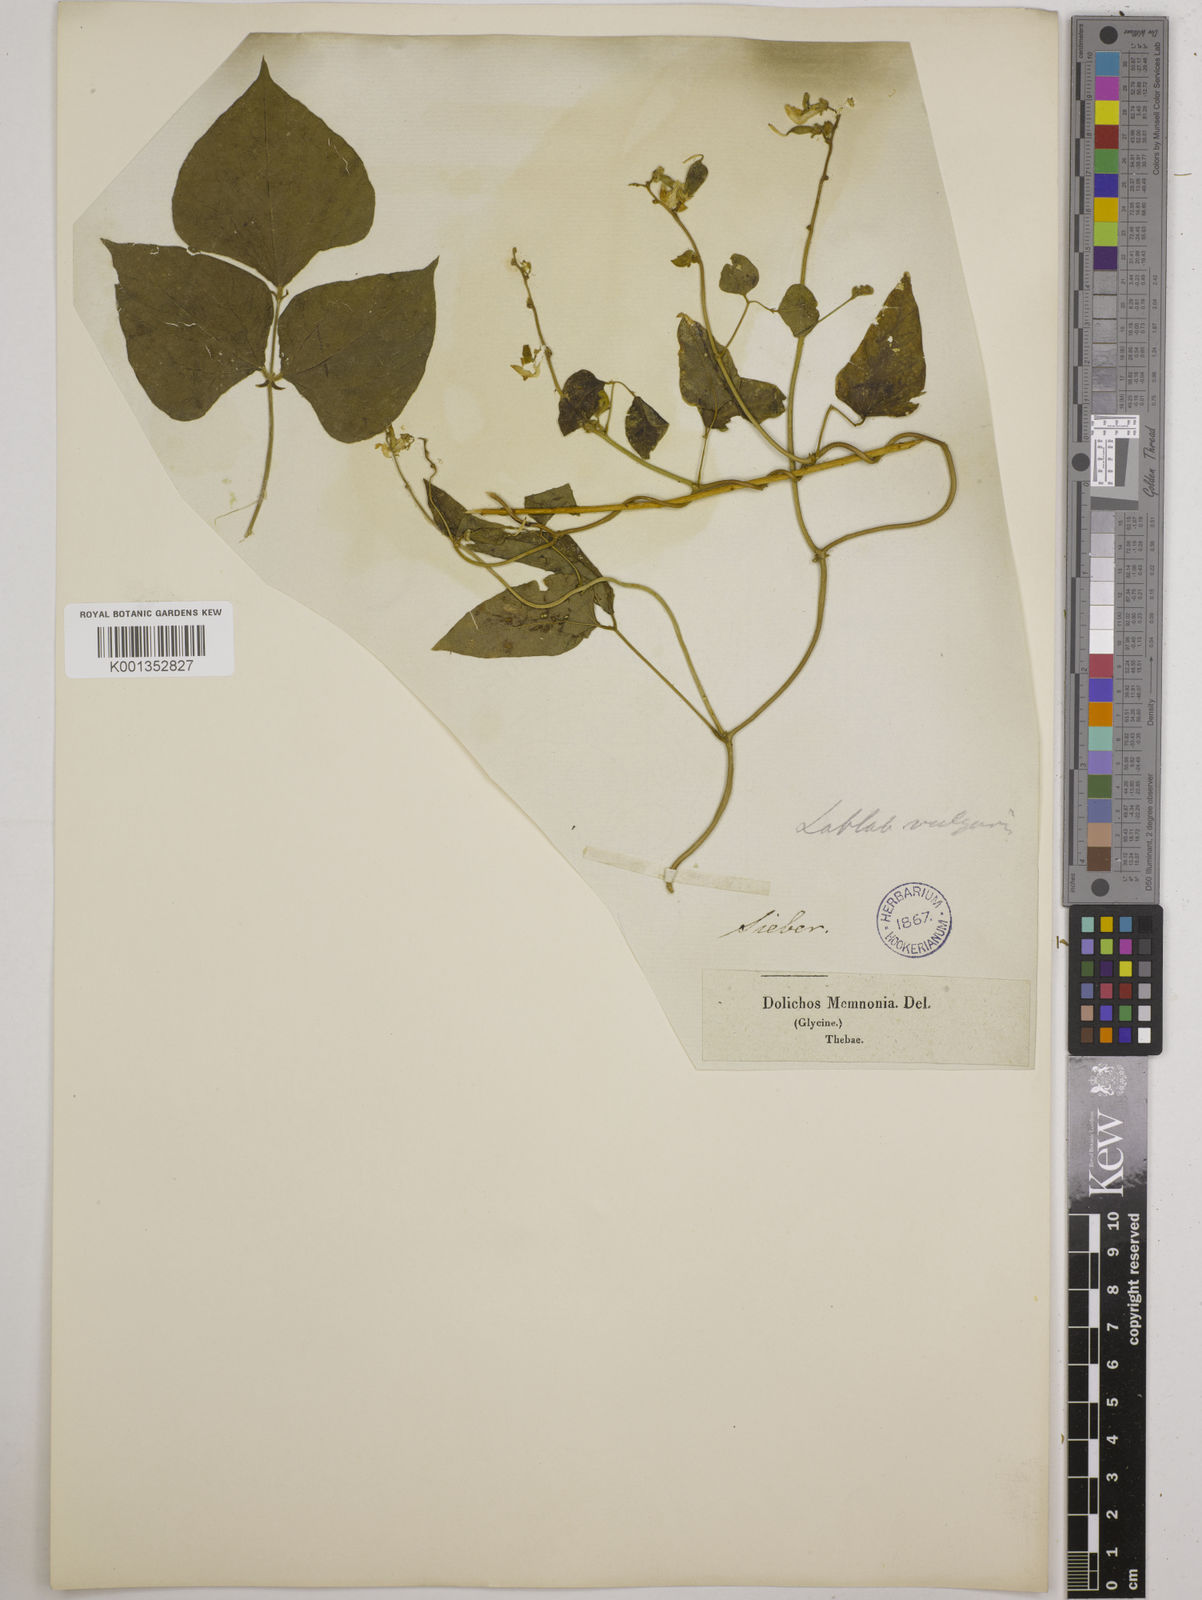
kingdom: Plantae
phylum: Tracheophyta
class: Magnoliopsida
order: Fabales
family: Fabaceae
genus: Lablab
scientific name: Lablab purpureus
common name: Lablab-bean
